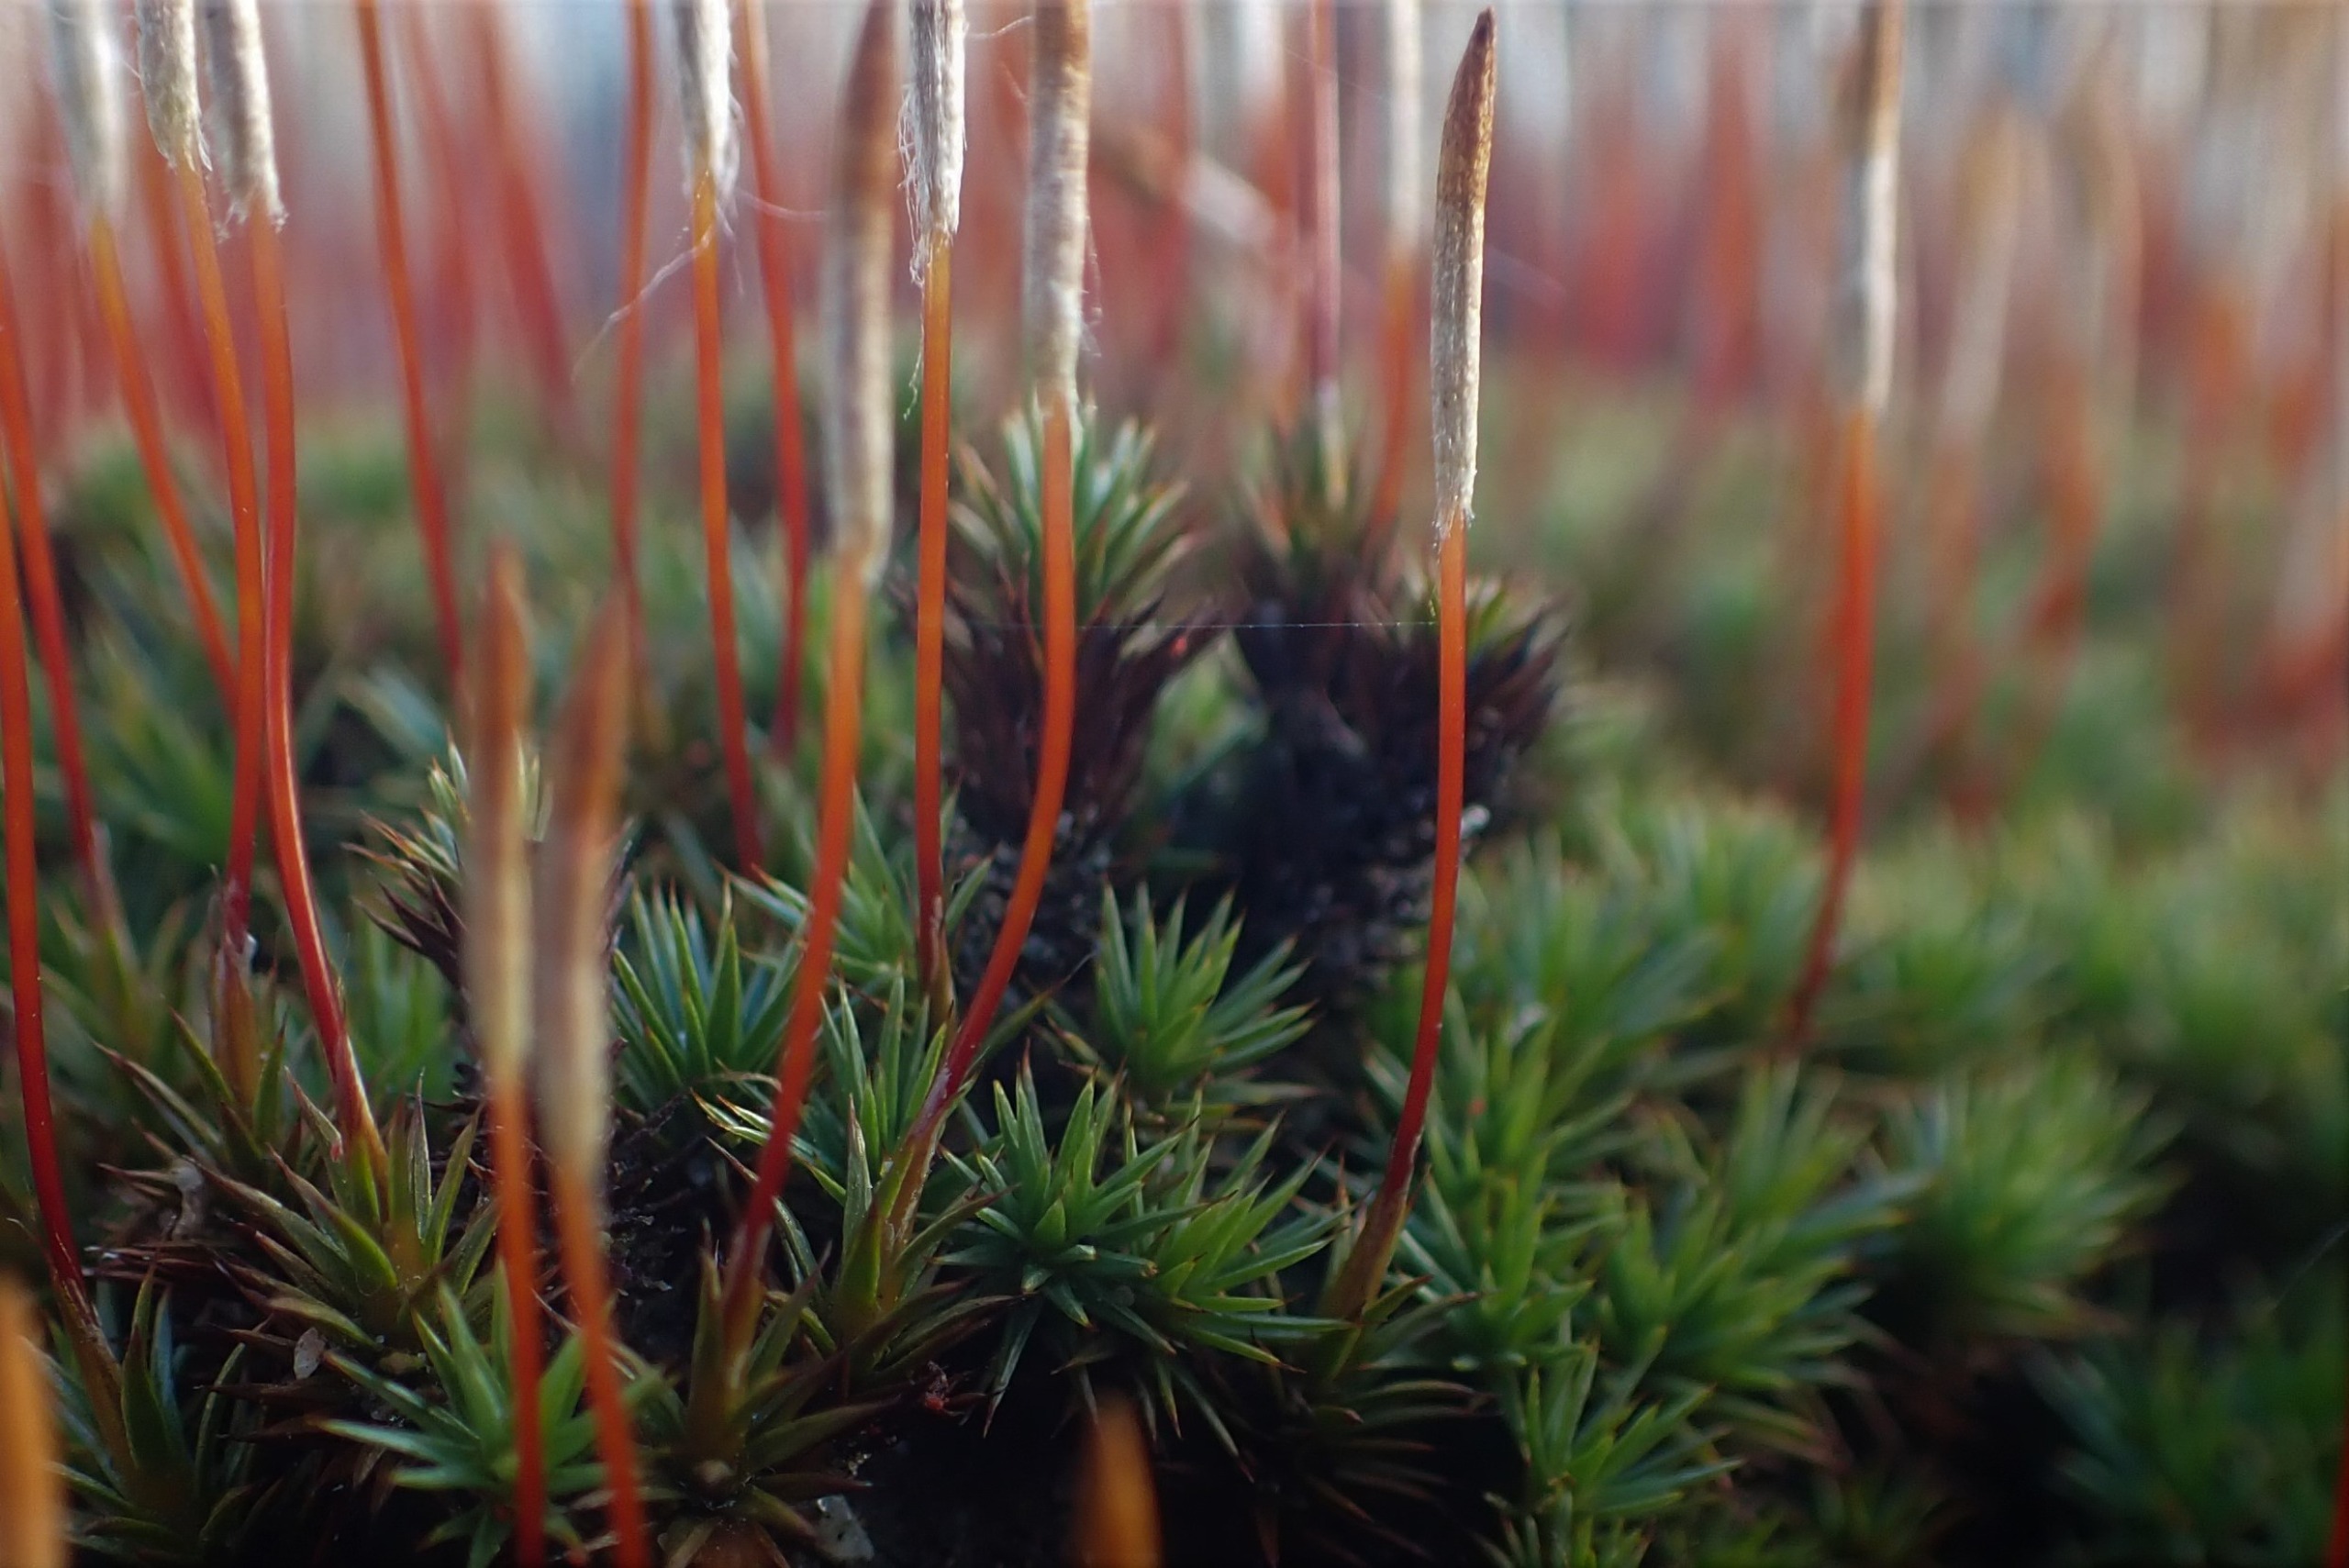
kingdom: Plantae
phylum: Bryophyta
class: Polytrichopsida
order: Polytrichales
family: Polytrichaceae
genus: Polytrichum
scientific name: Polytrichum juniperinum
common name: Ene-jomfruhår
